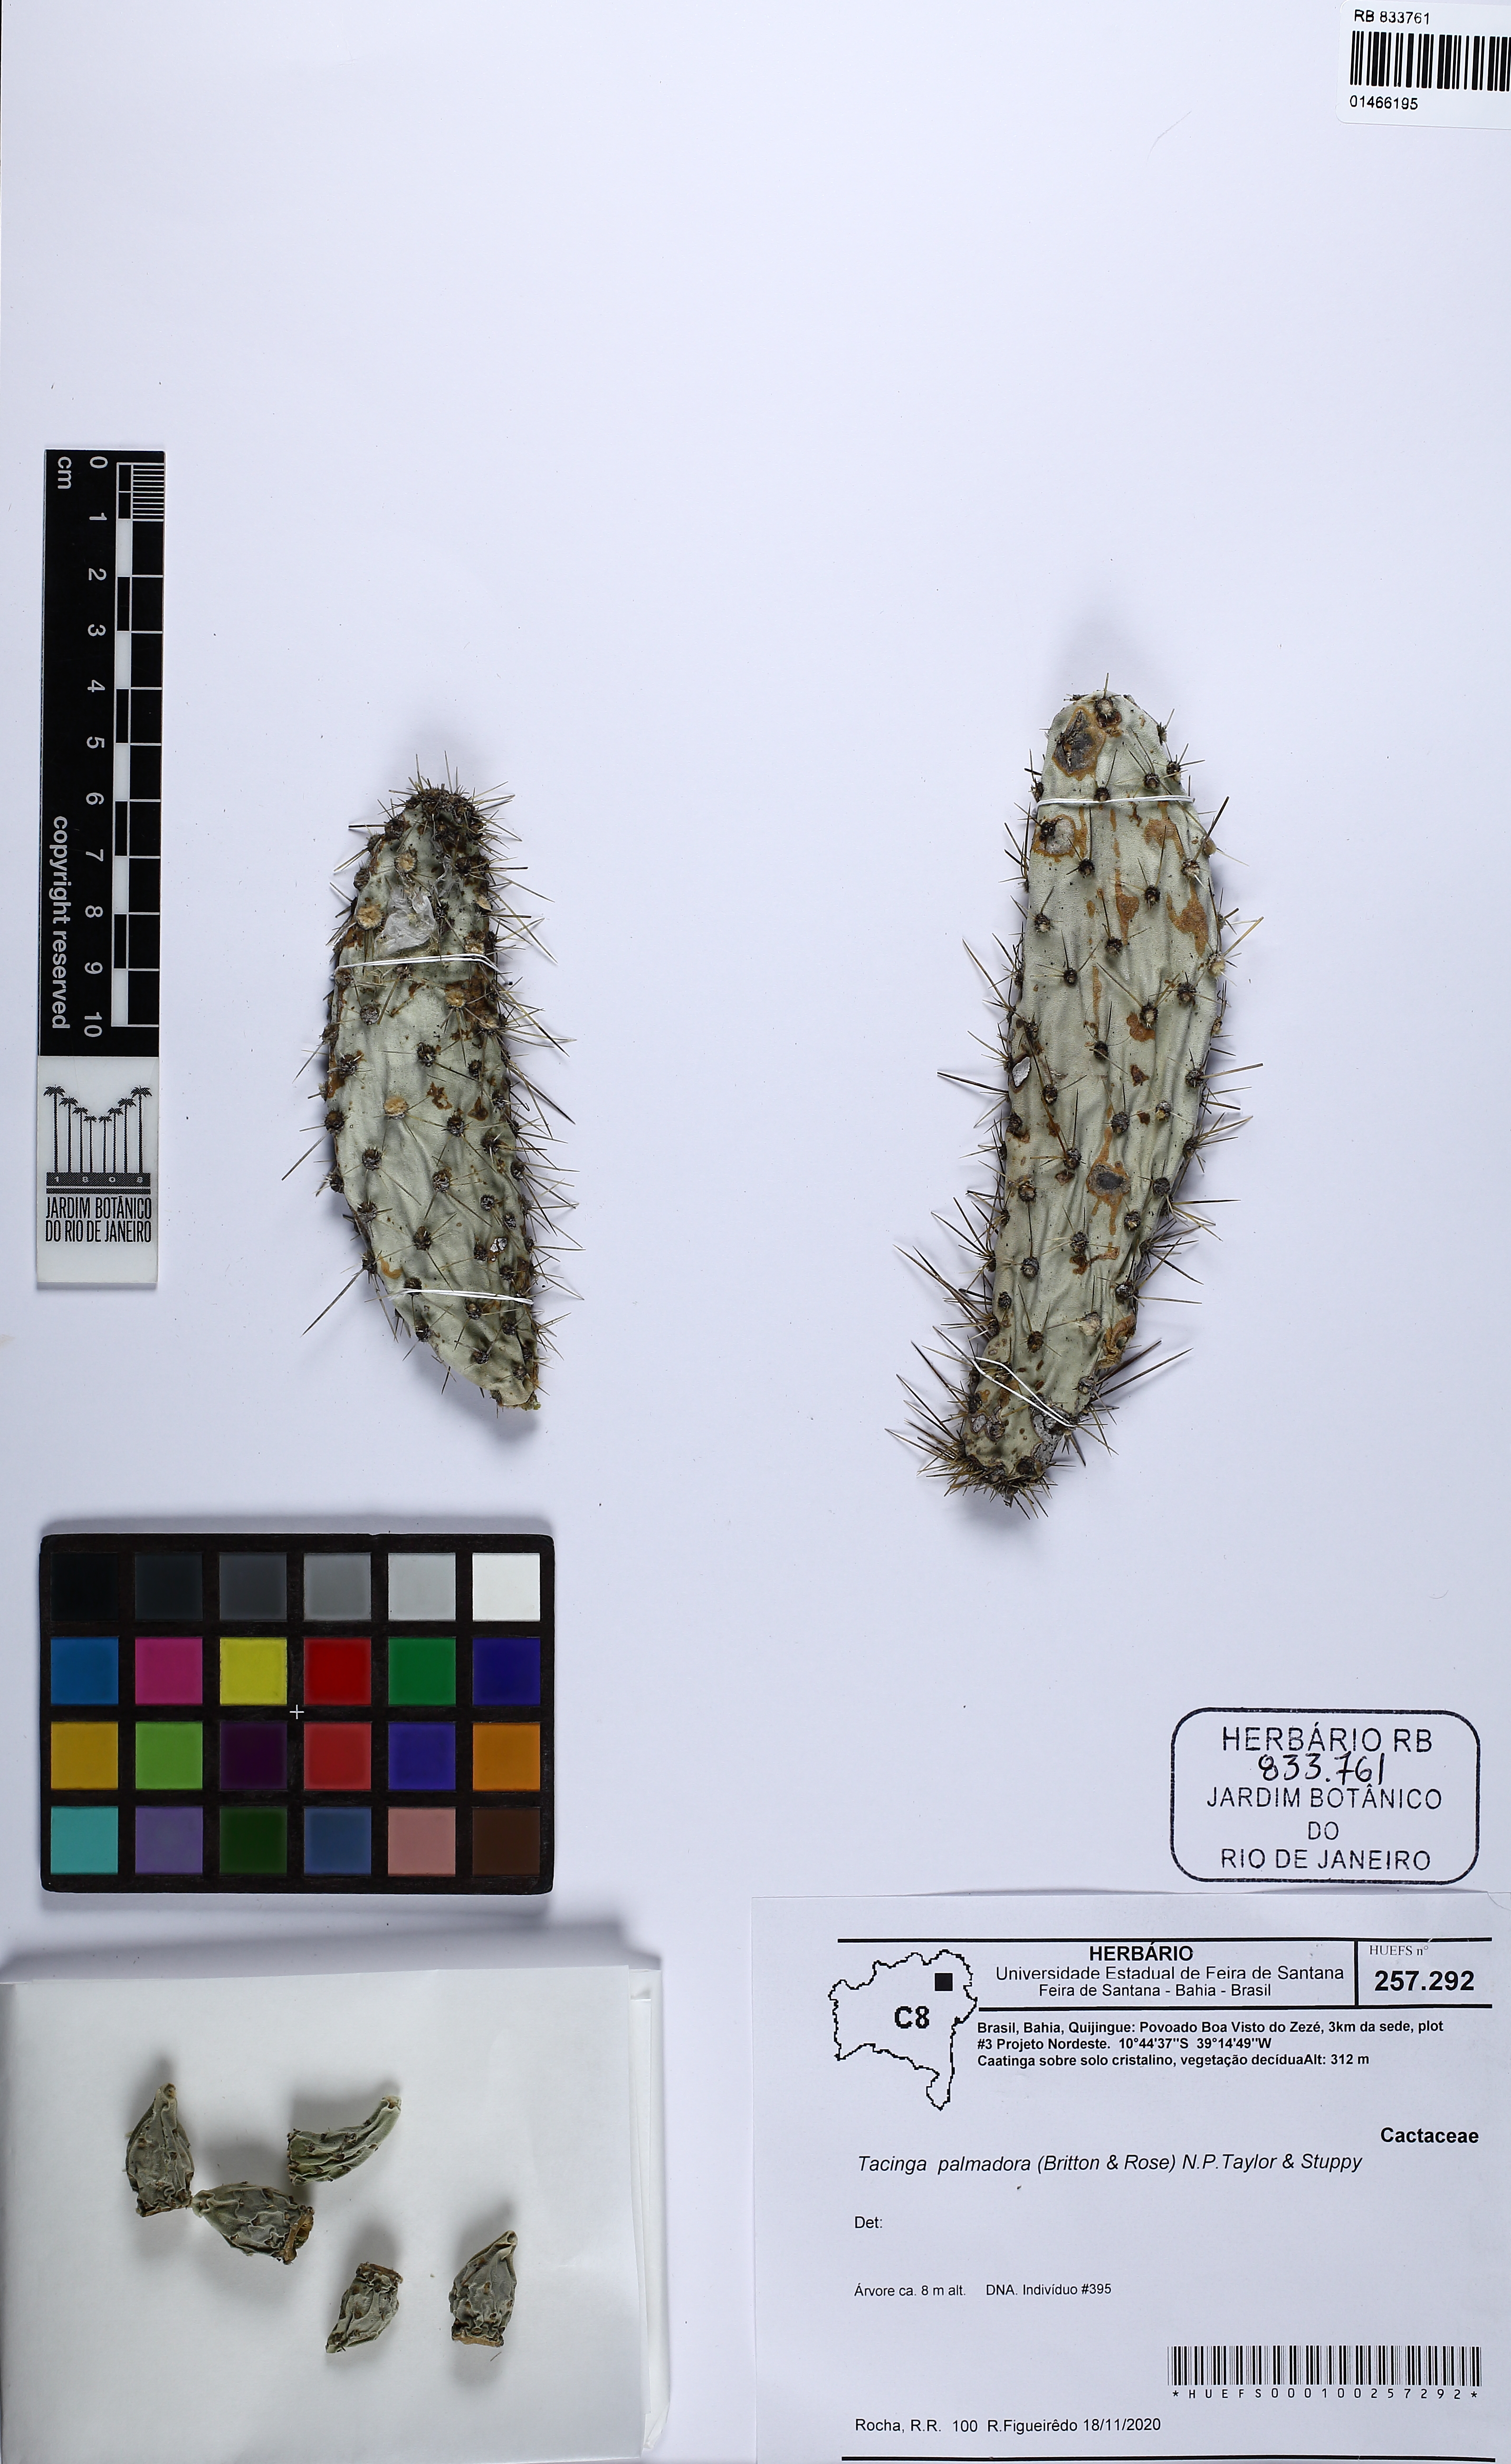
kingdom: Plantae
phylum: Tracheophyta
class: Magnoliopsida
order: Caryophyllales
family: Cactaceae
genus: Tacinga
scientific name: Tacinga palmadora
